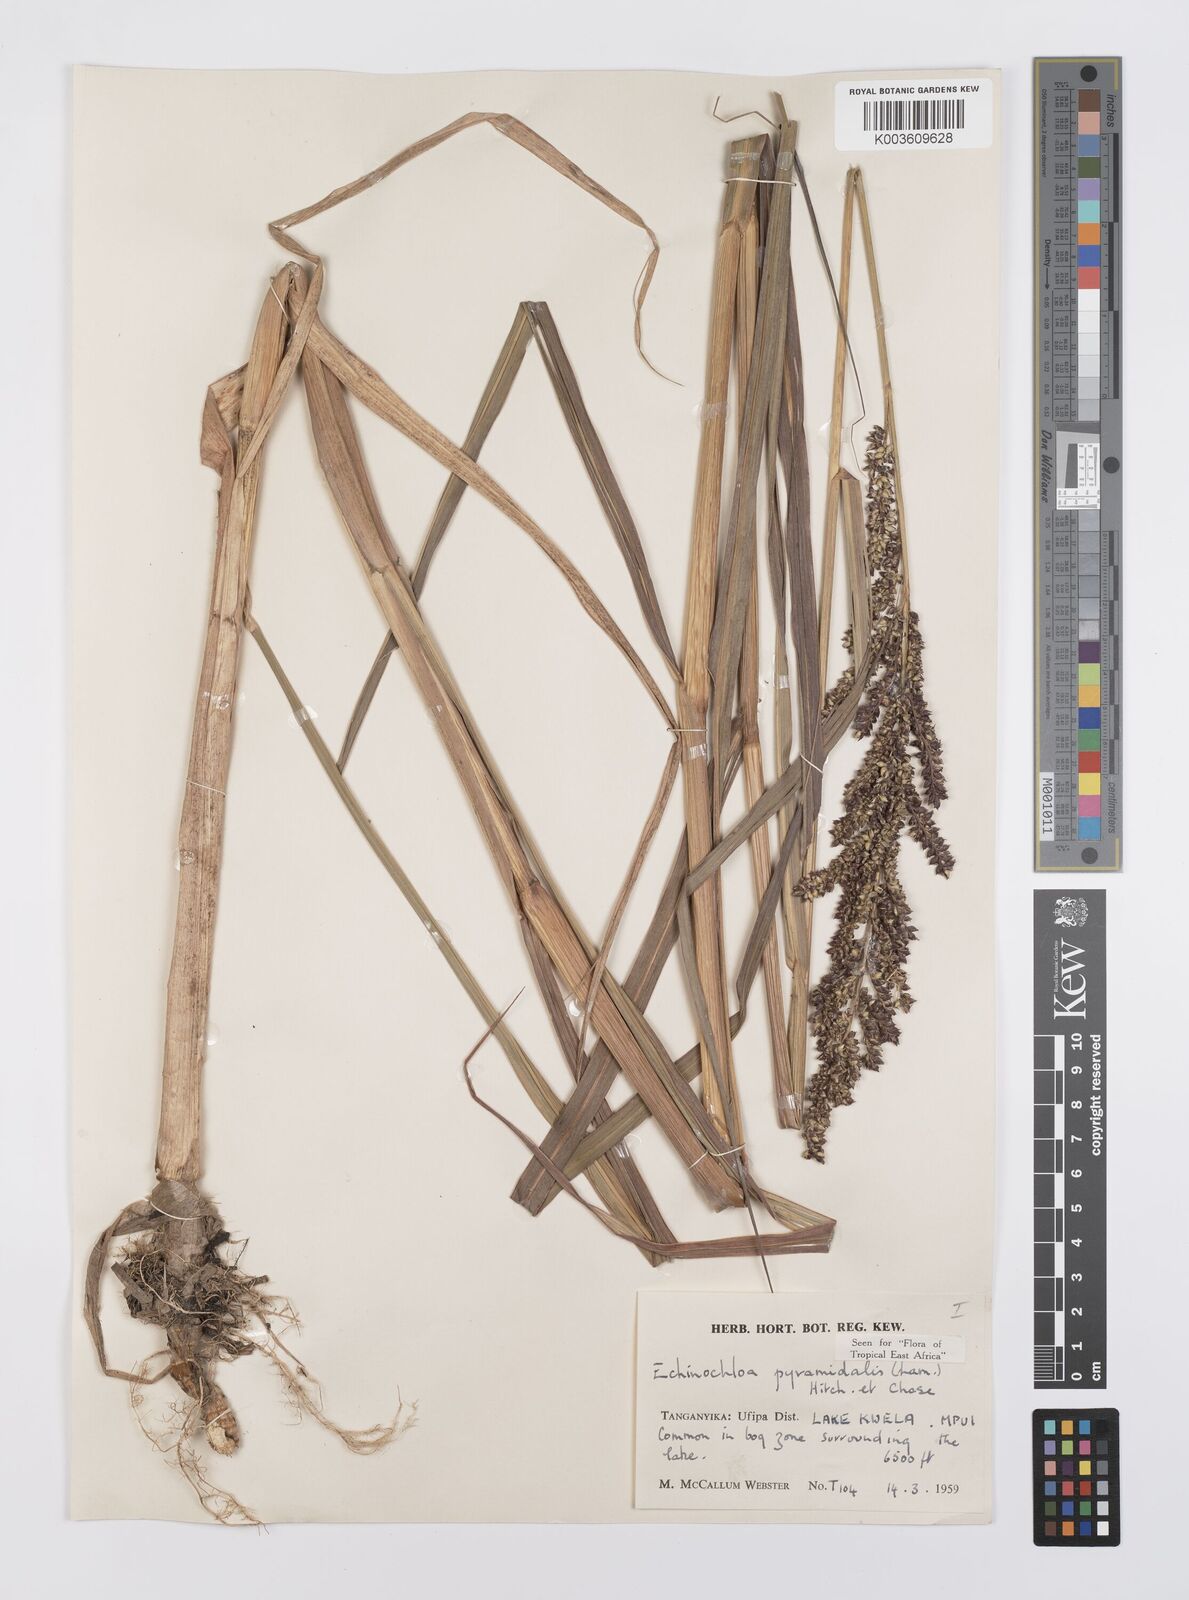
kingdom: Plantae
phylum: Tracheophyta
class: Liliopsida
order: Poales
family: Poaceae
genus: Echinochloa
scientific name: Echinochloa pyramidalis
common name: Antelope grass
